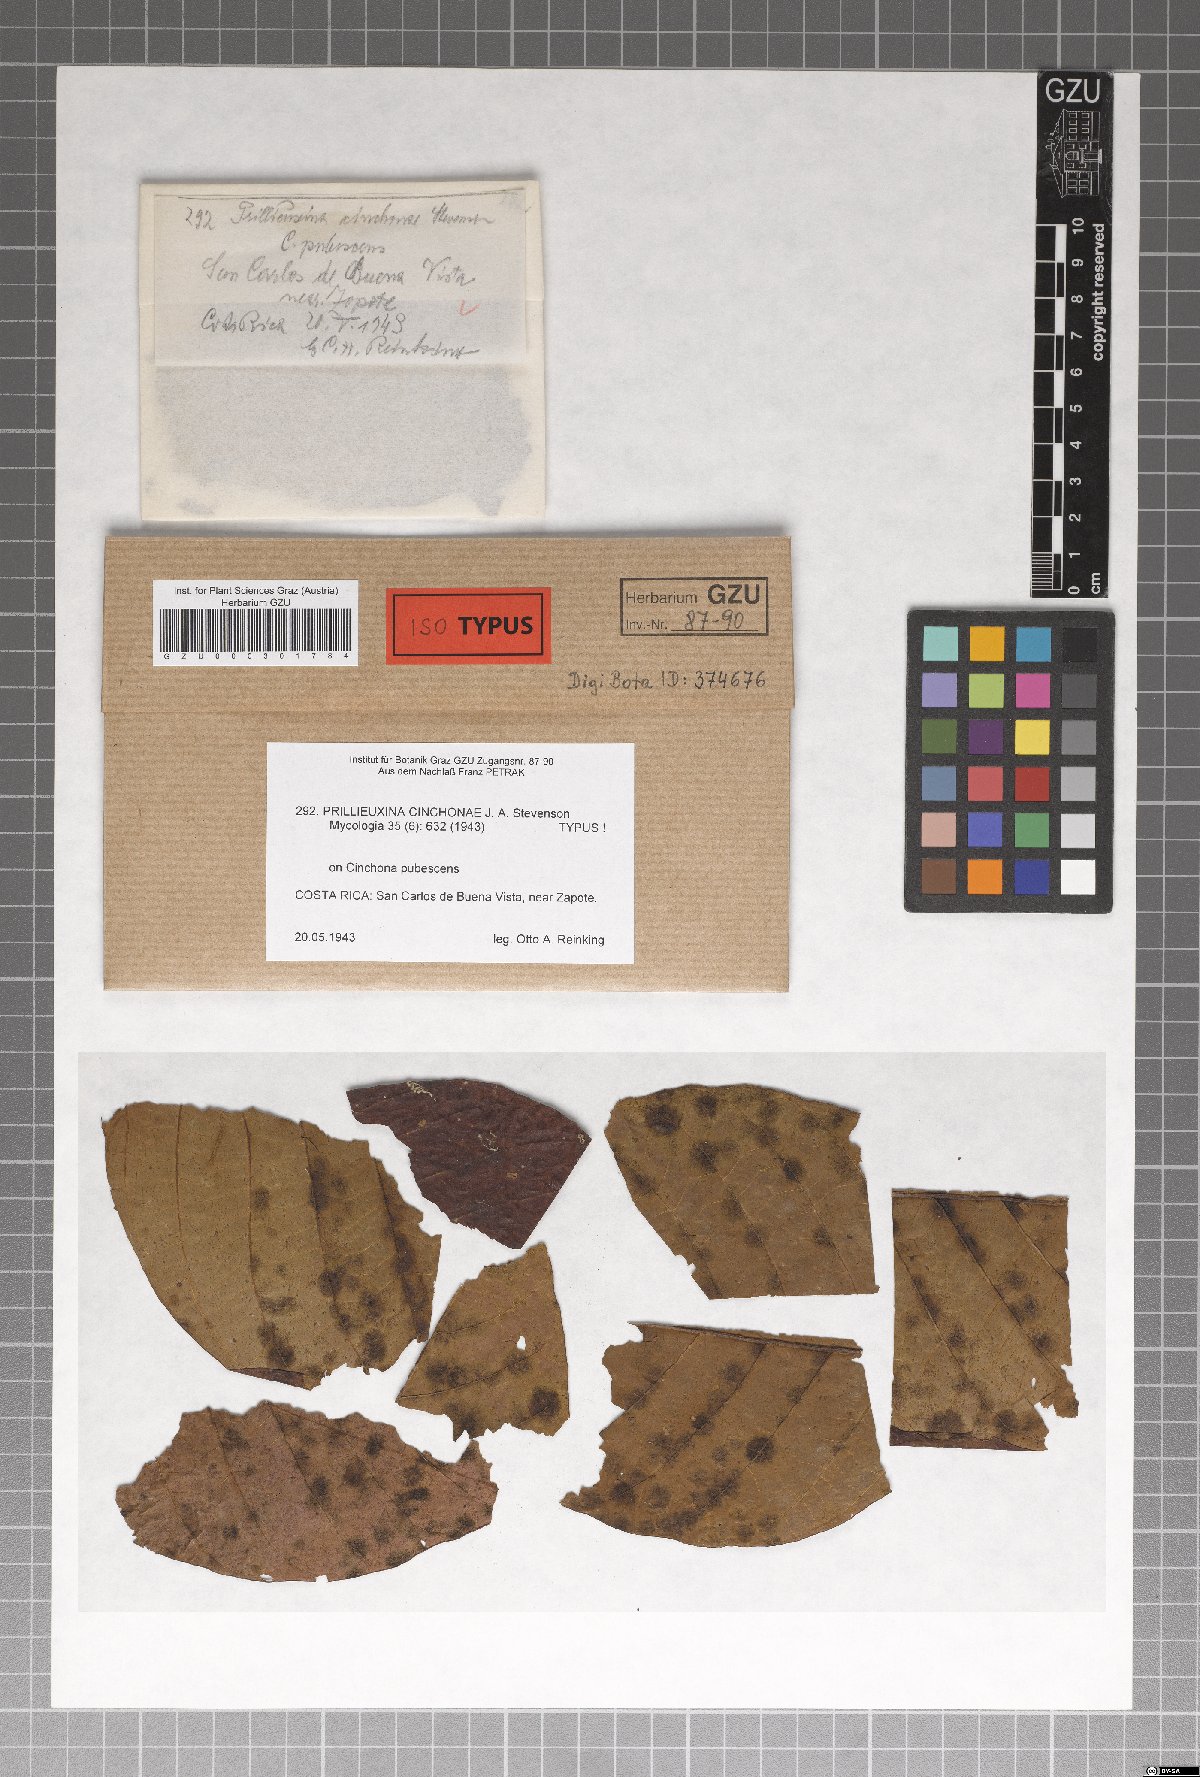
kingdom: Fungi
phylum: Ascomycota
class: Dothideomycetes
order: Asterinales
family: Asterinaceae
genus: Prillieuxina
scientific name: Prillieuxina cinchonae
